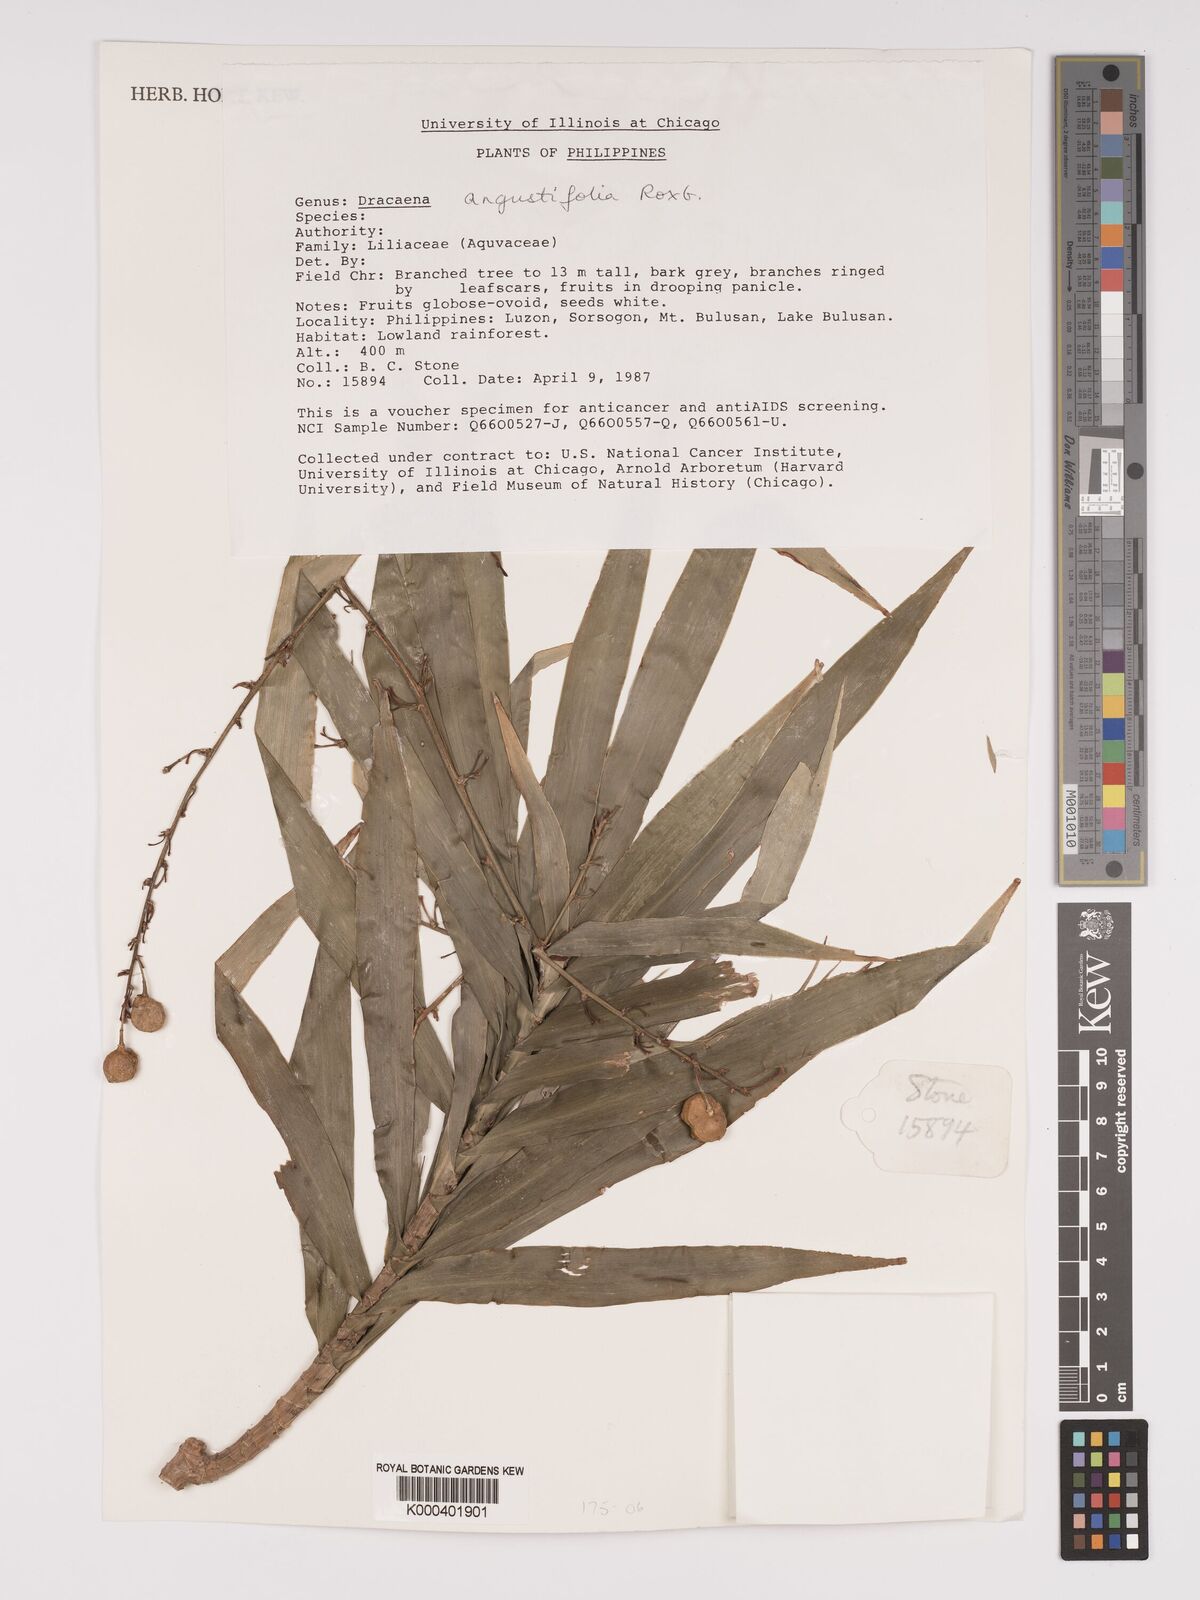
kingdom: Plantae
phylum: Tracheophyta
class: Liliopsida
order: Asparagales
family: Asparagaceae
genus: Dracaena
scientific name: Dracaena angustifolia
